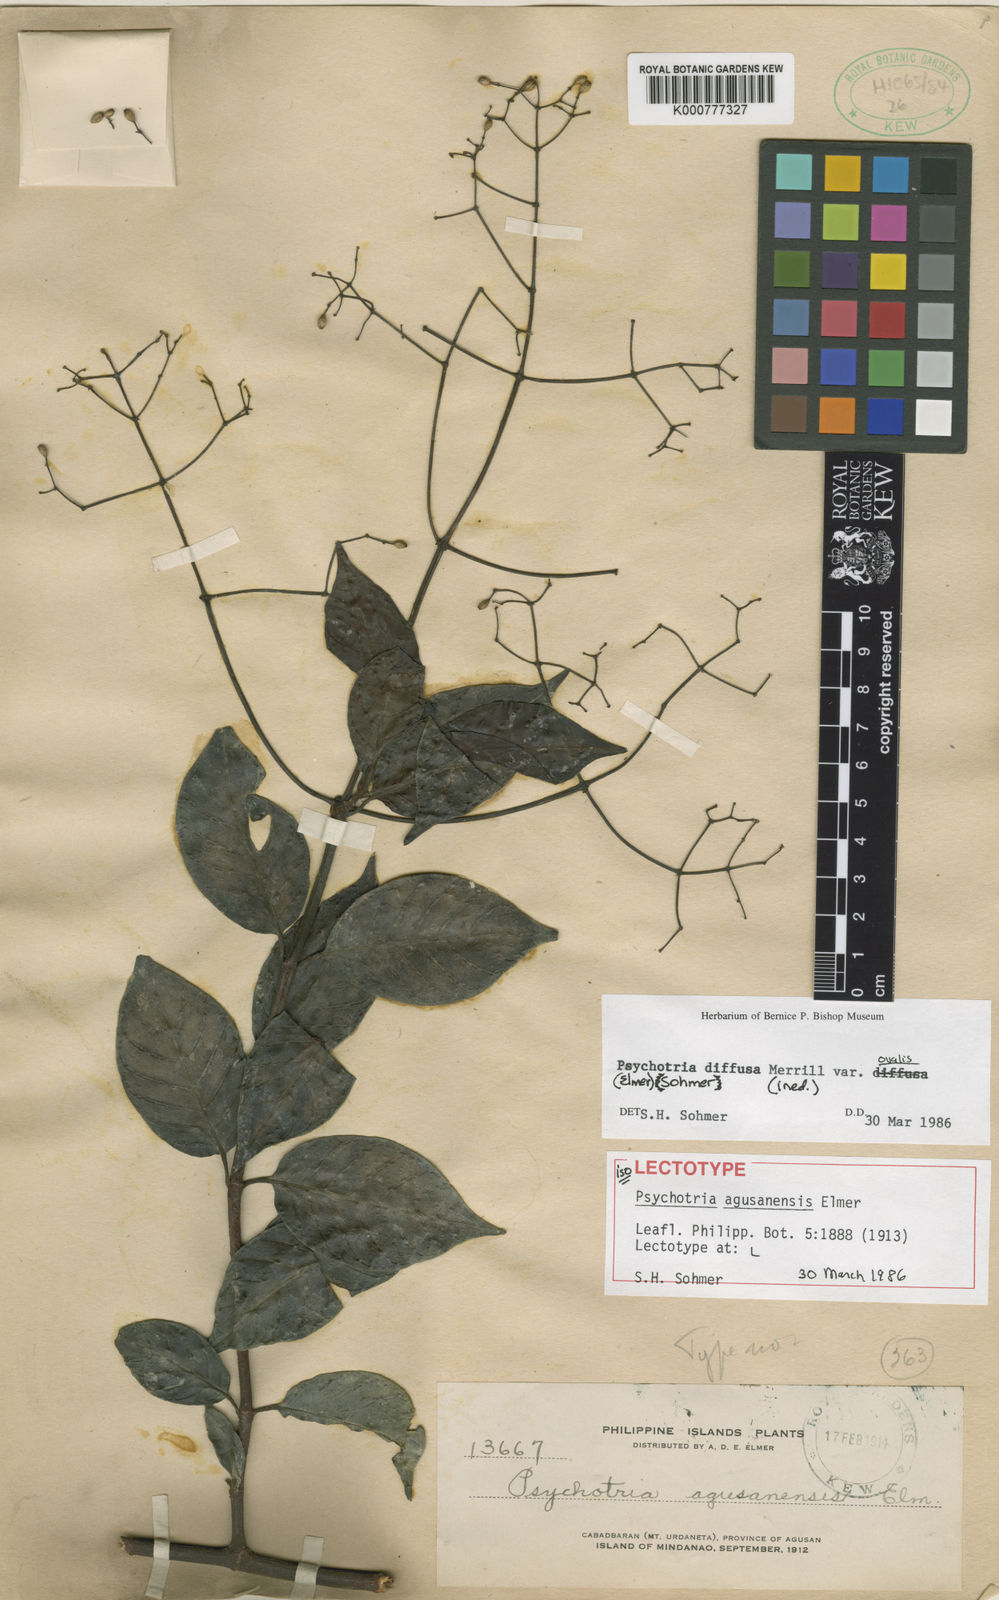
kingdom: Plantae
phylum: Tracheophyta
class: Magnoliopsida
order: Gentianales
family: Rubiaceae
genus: Psychotria
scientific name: Psychotria diffusa
